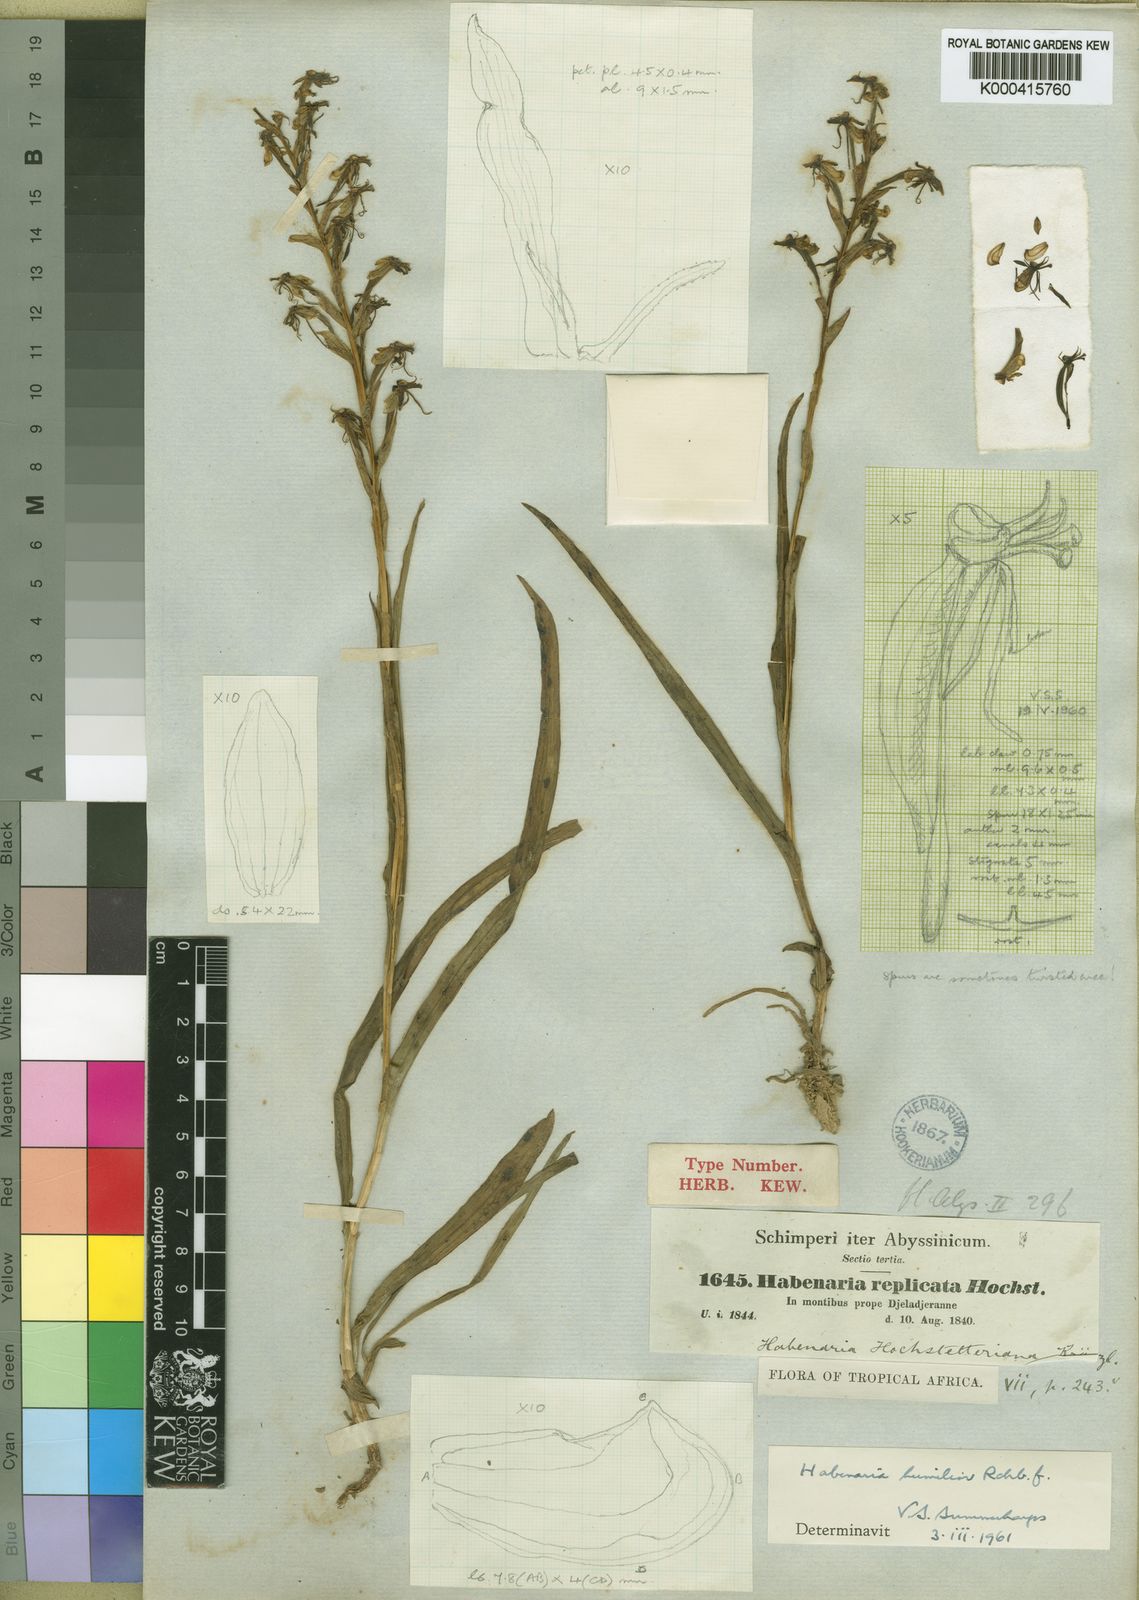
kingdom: Plantae
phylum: Tracheophyta
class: Liliopsida
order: Asparagales
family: Orchidaceae
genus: Habenaria
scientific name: Habenaria humilior
